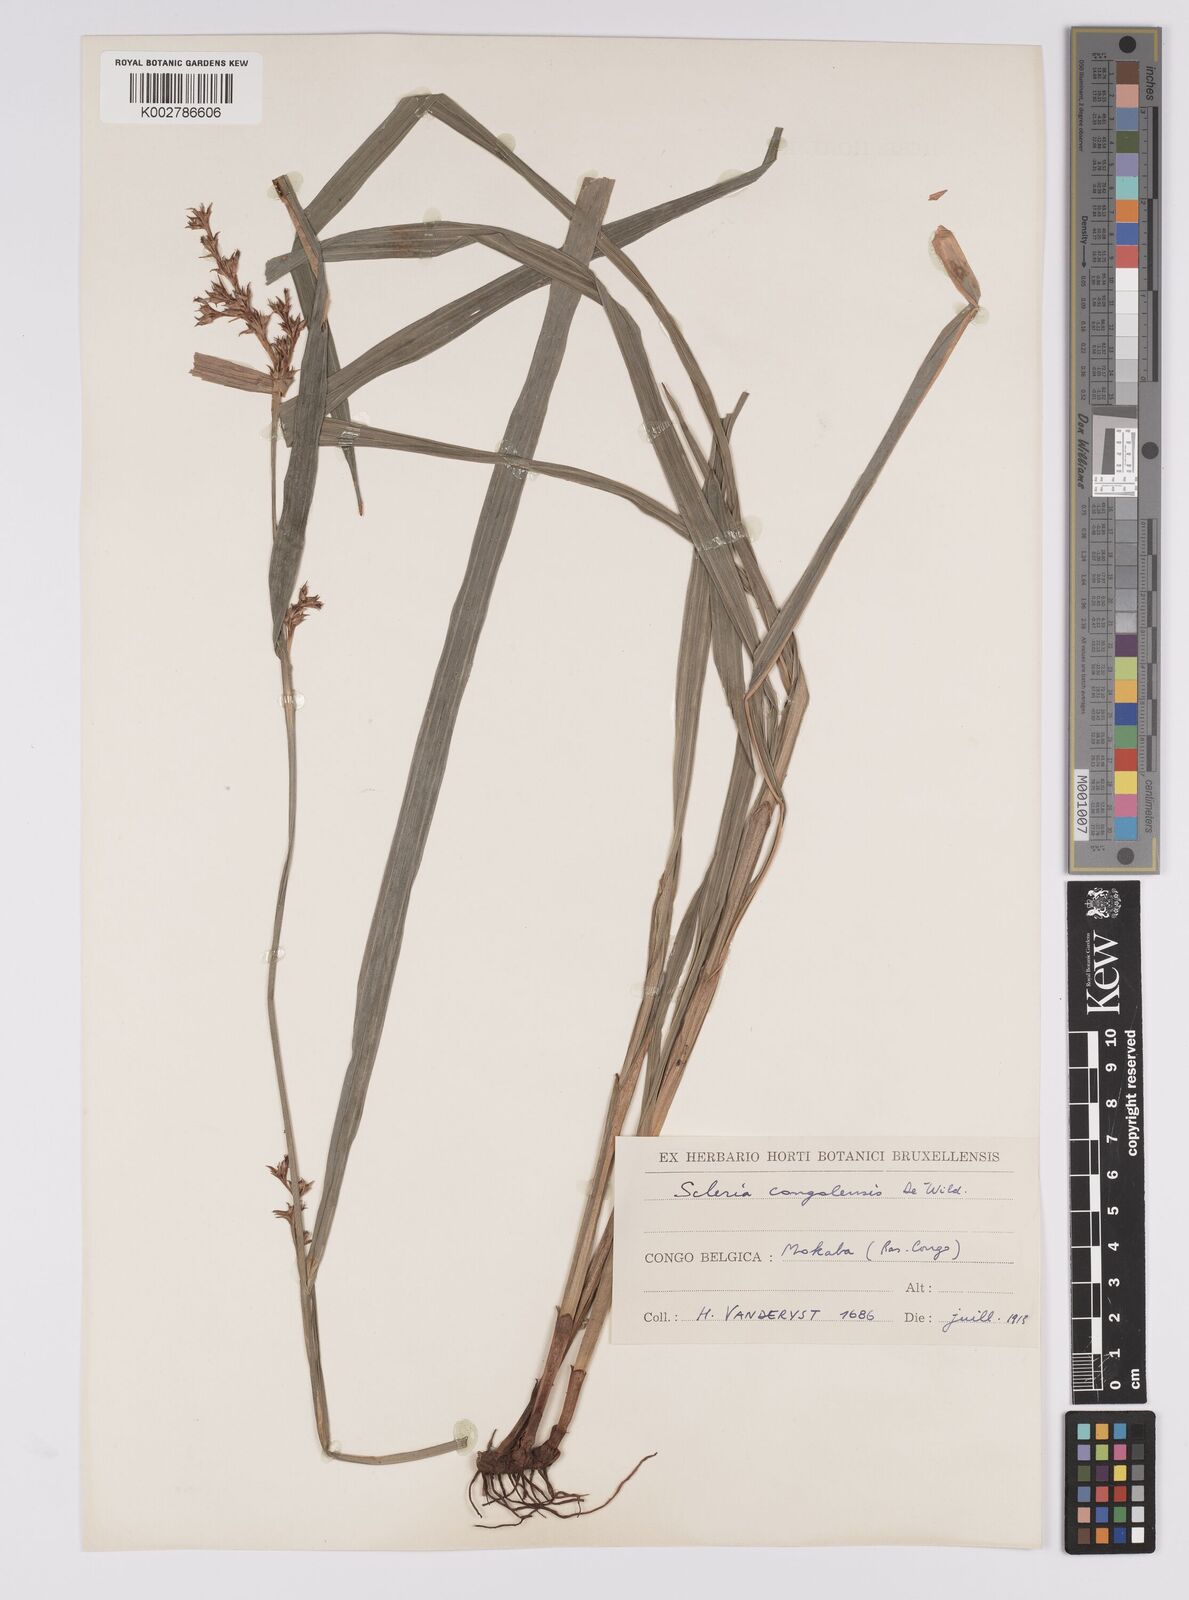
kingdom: Plantae
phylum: Tracheophyta
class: Liliopsida
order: Poales
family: Cyperaceae
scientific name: Cyperaceae
